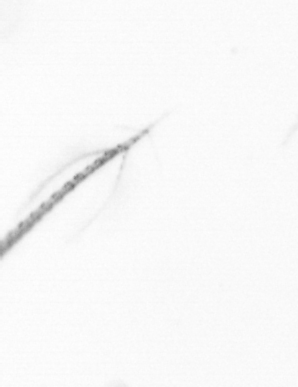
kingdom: Chromista
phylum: Ochrophyta
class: Bacillariophyceae
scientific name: Bacillariophyceae
